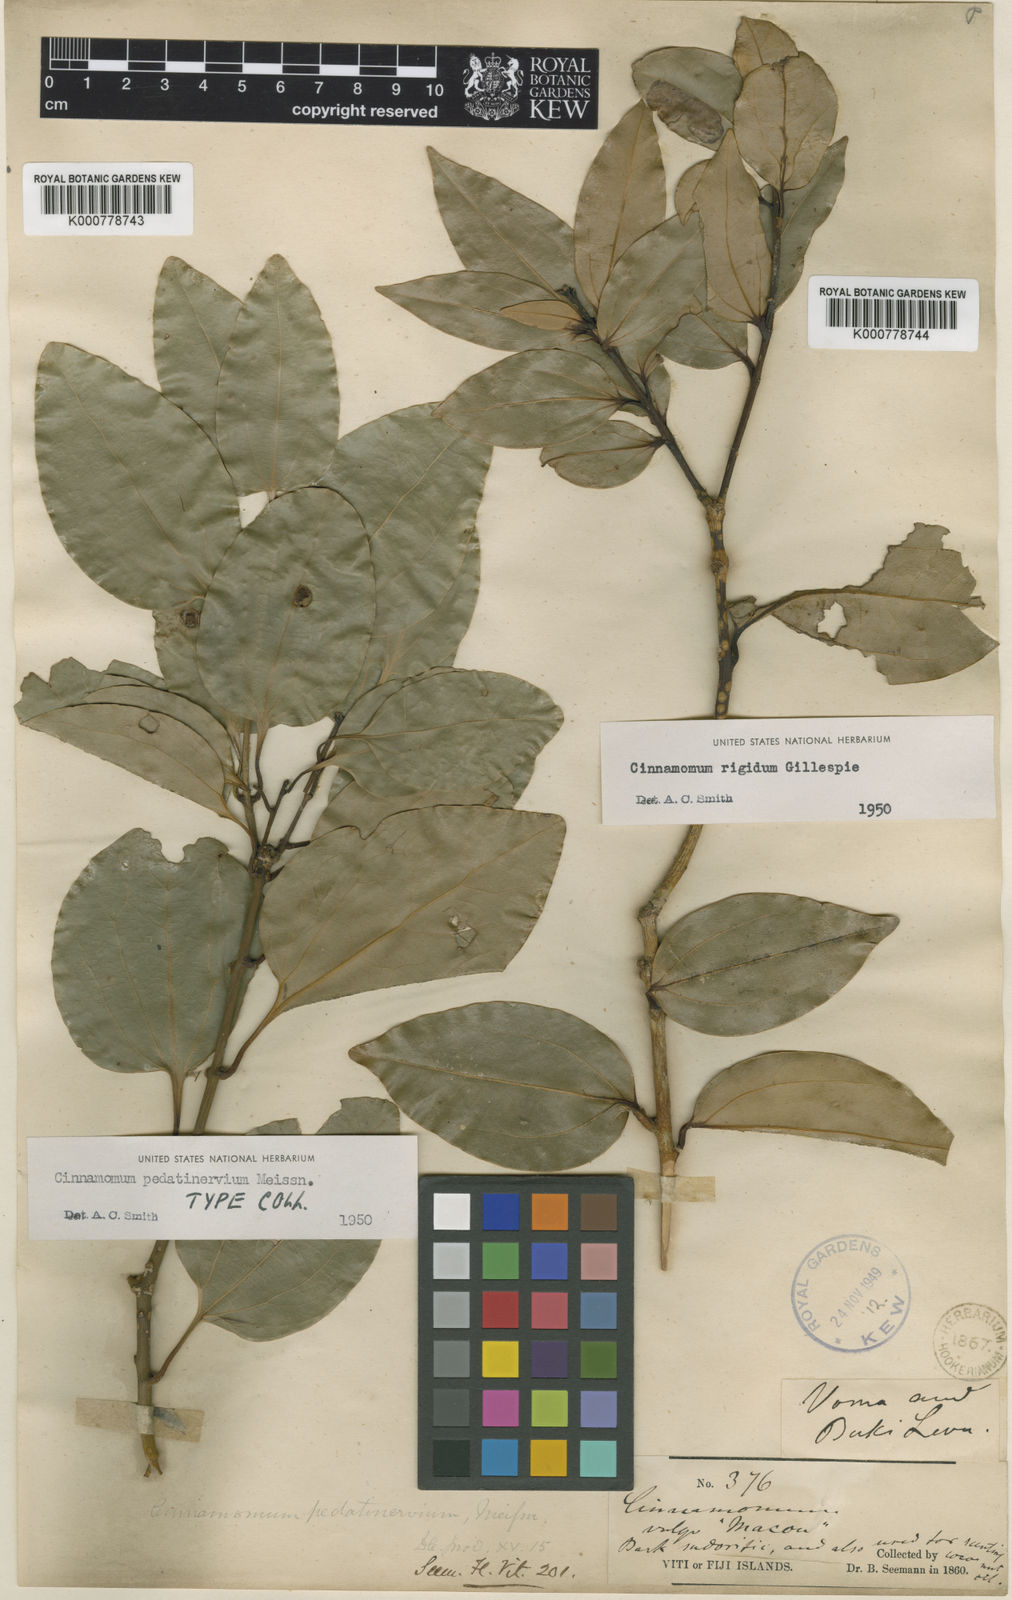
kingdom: Plantae
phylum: Tracheophyta
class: Magnoliopsida
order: Laurales
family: Lauraceae
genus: Cinnamomum
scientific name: Cinnamomum pedatinervium
